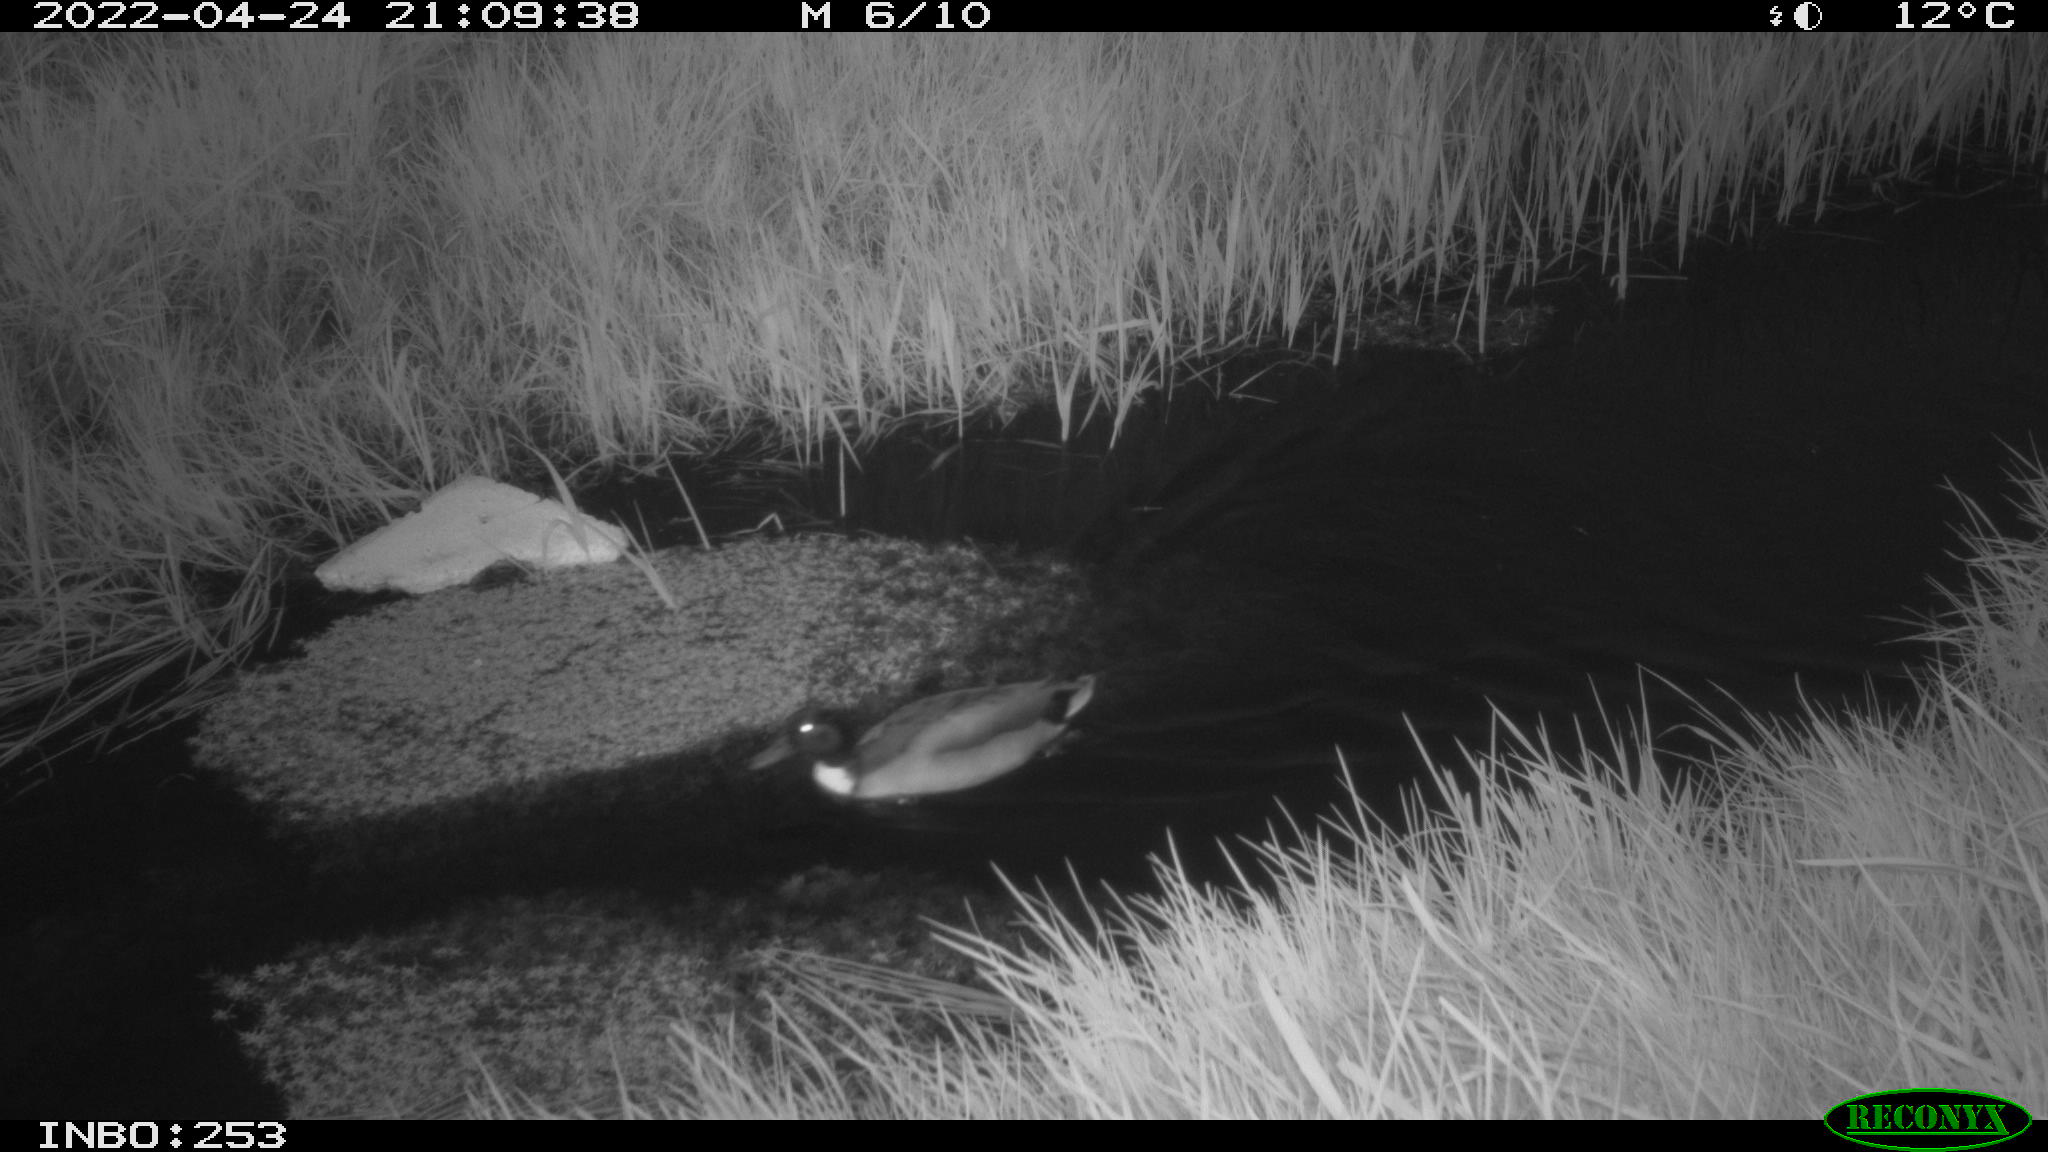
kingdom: Animalia
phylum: Chordata
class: Aves
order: Anseriformes
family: Anatidae
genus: Anas
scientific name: Anas platyrhynchos
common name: Mallard
